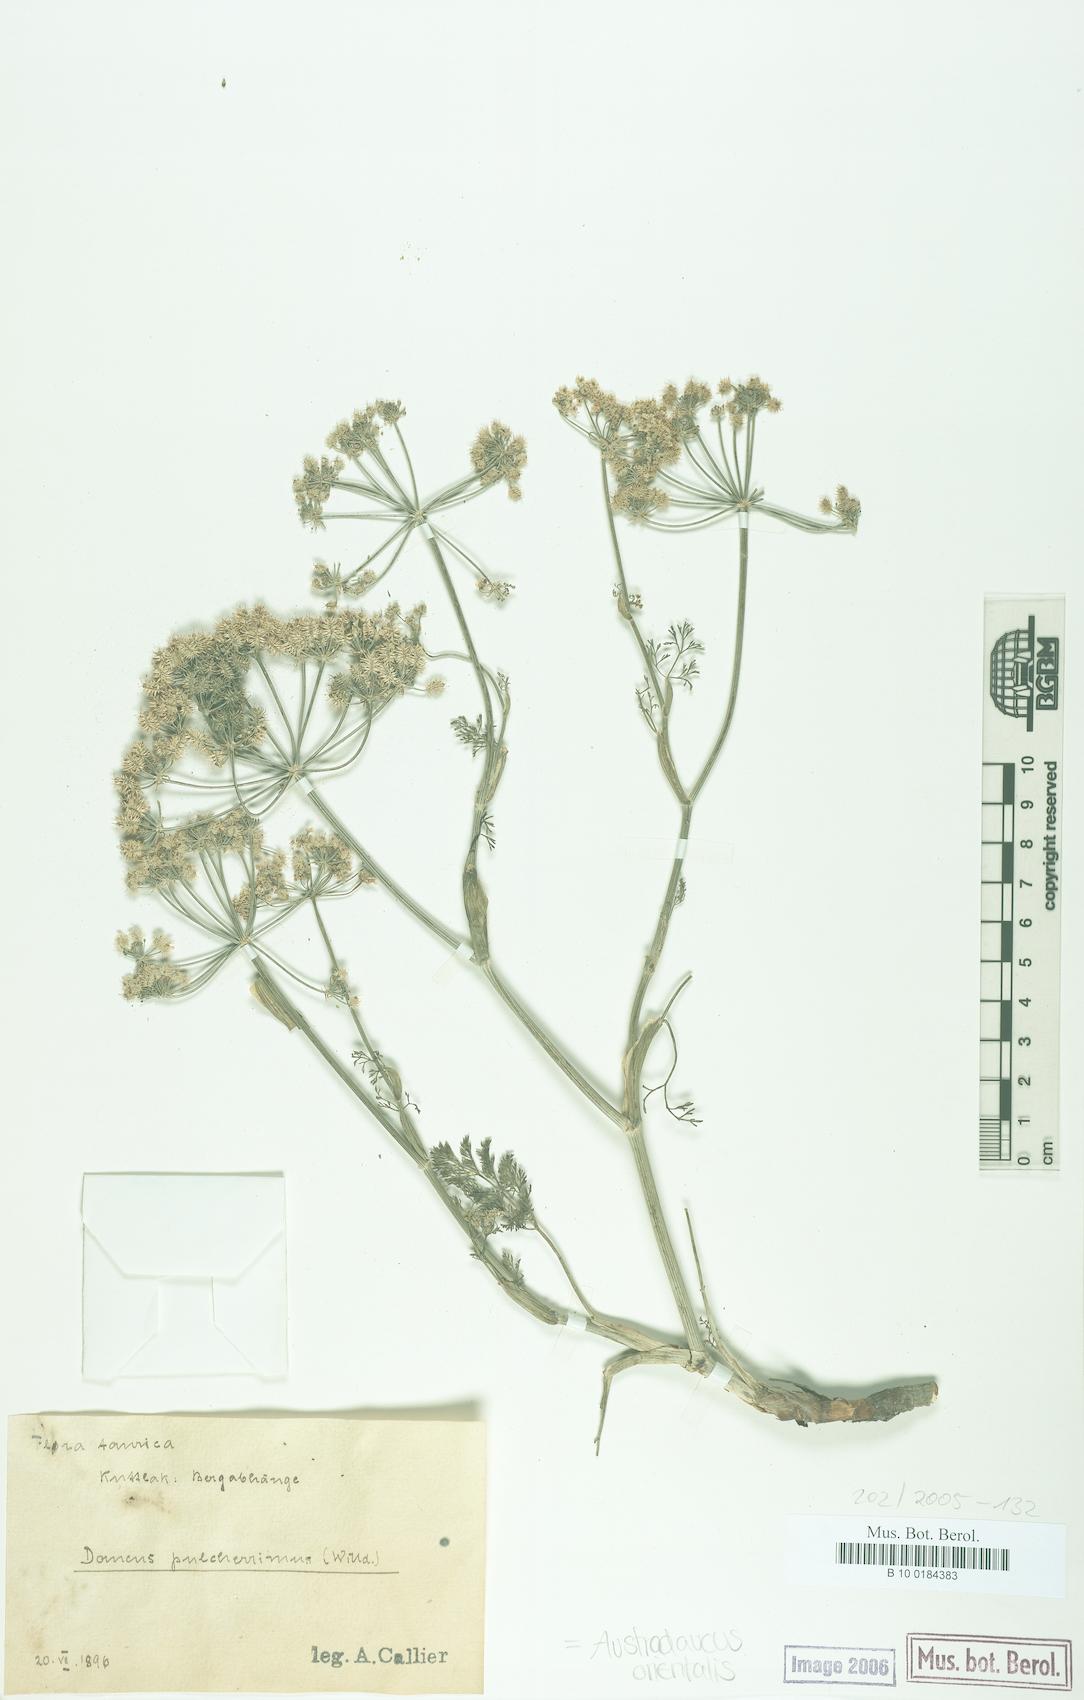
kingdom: Plantae
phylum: Tracheophyta
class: Magnoliopsida
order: Apiales
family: Apiaceae
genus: Astrodaucus
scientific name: Astrodaucus orientalis
